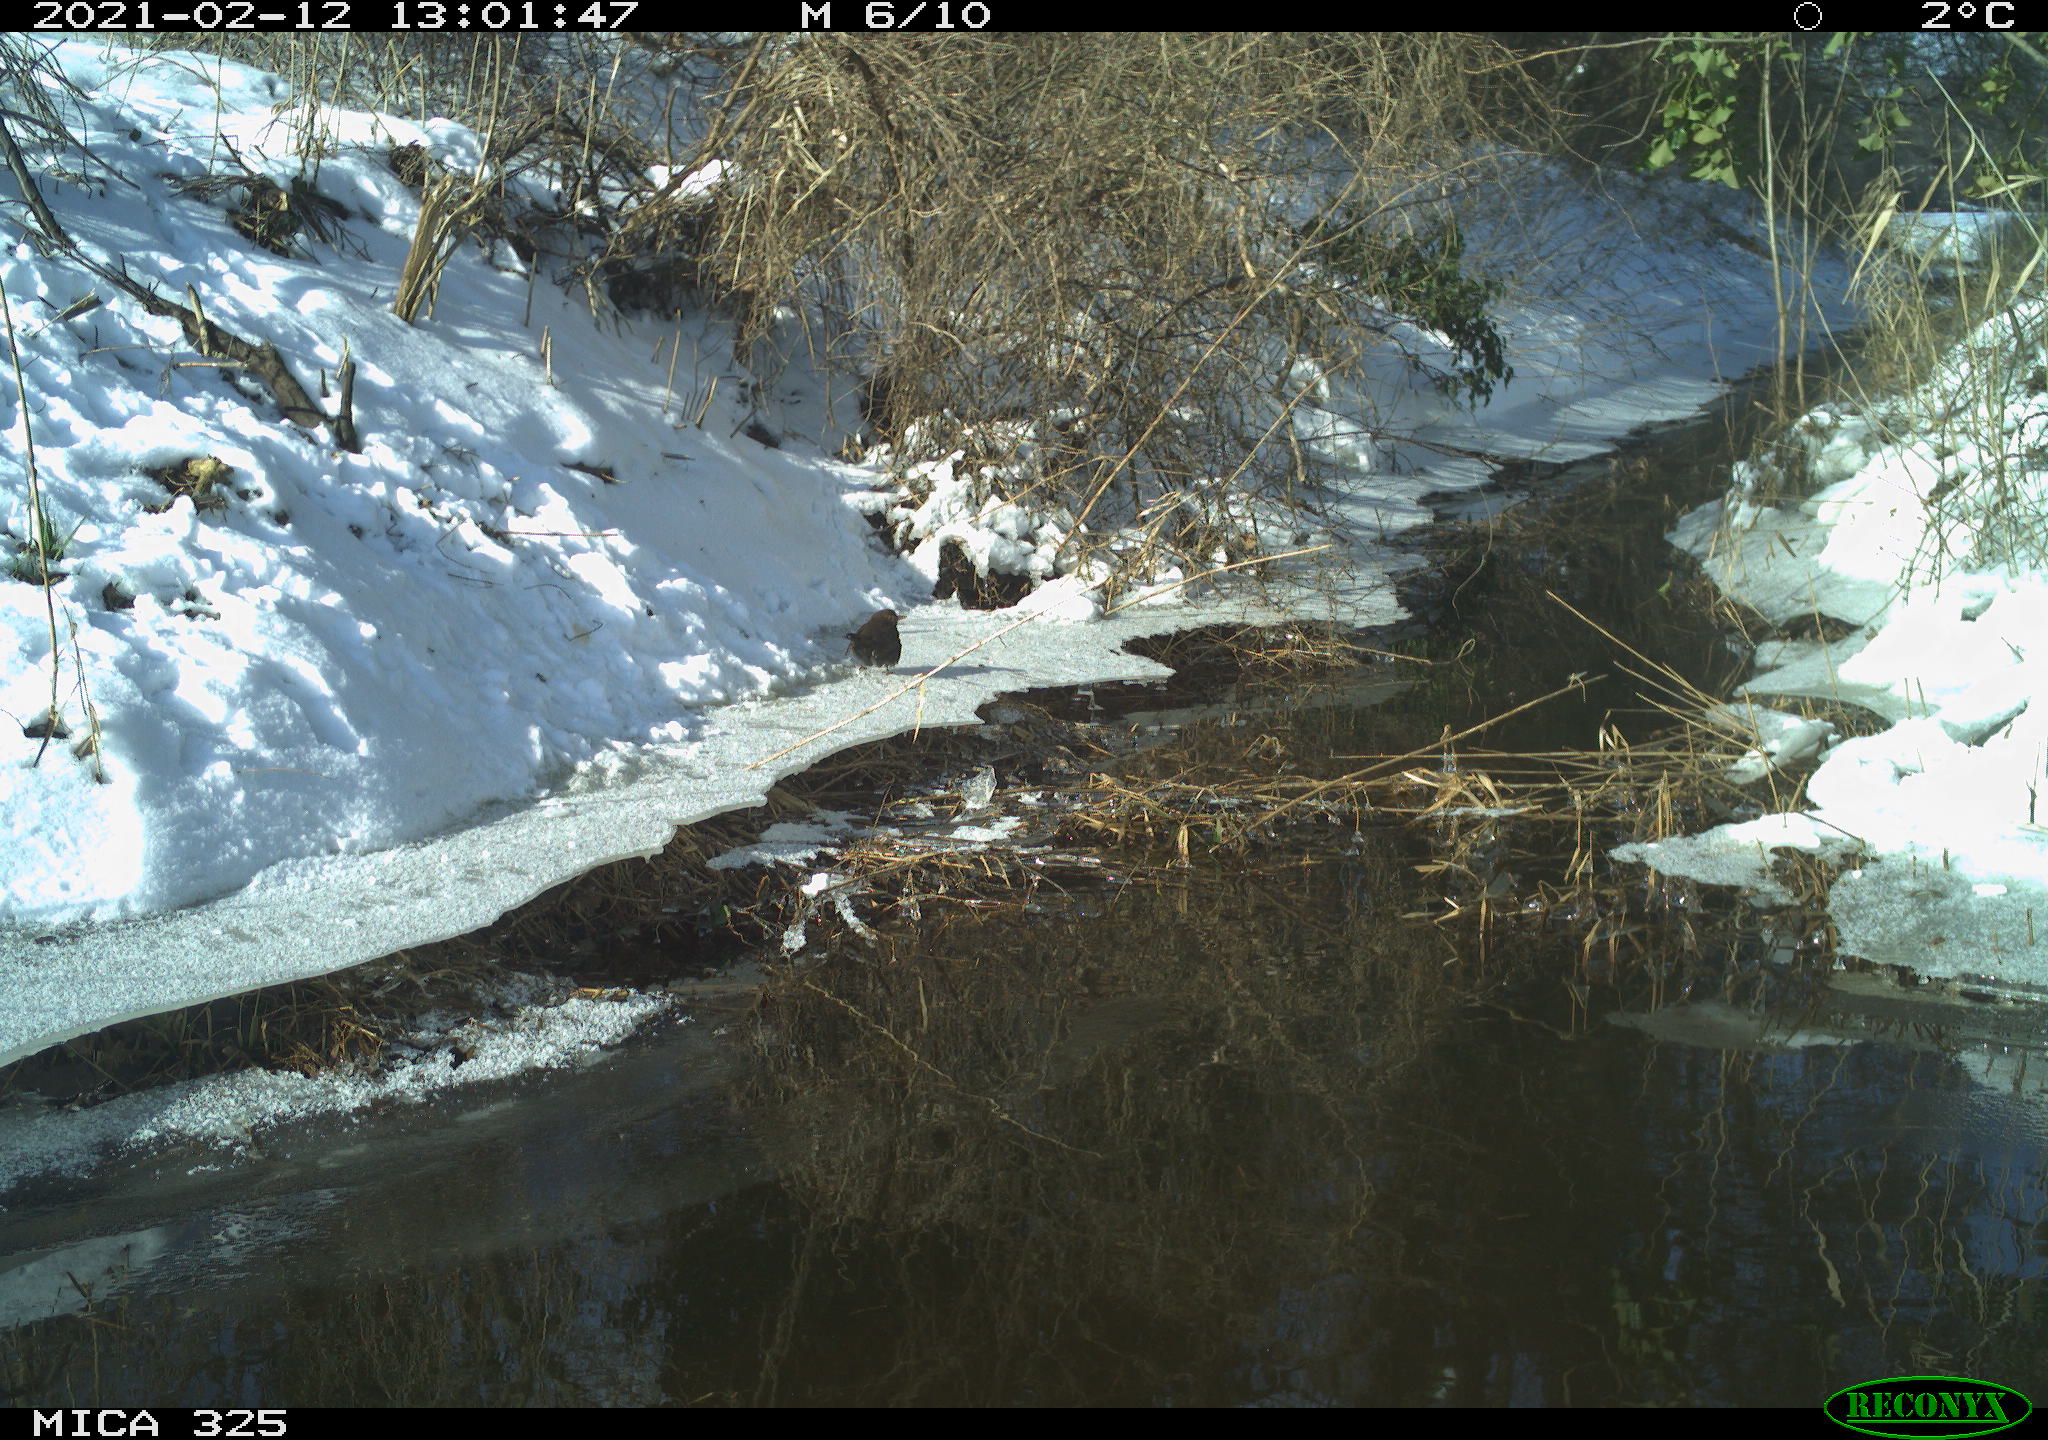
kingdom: Animalia
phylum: Chordata
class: Aves
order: Passeriformes
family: Turdidae
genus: Turdus
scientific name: Turdus merula
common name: Common blackbird
